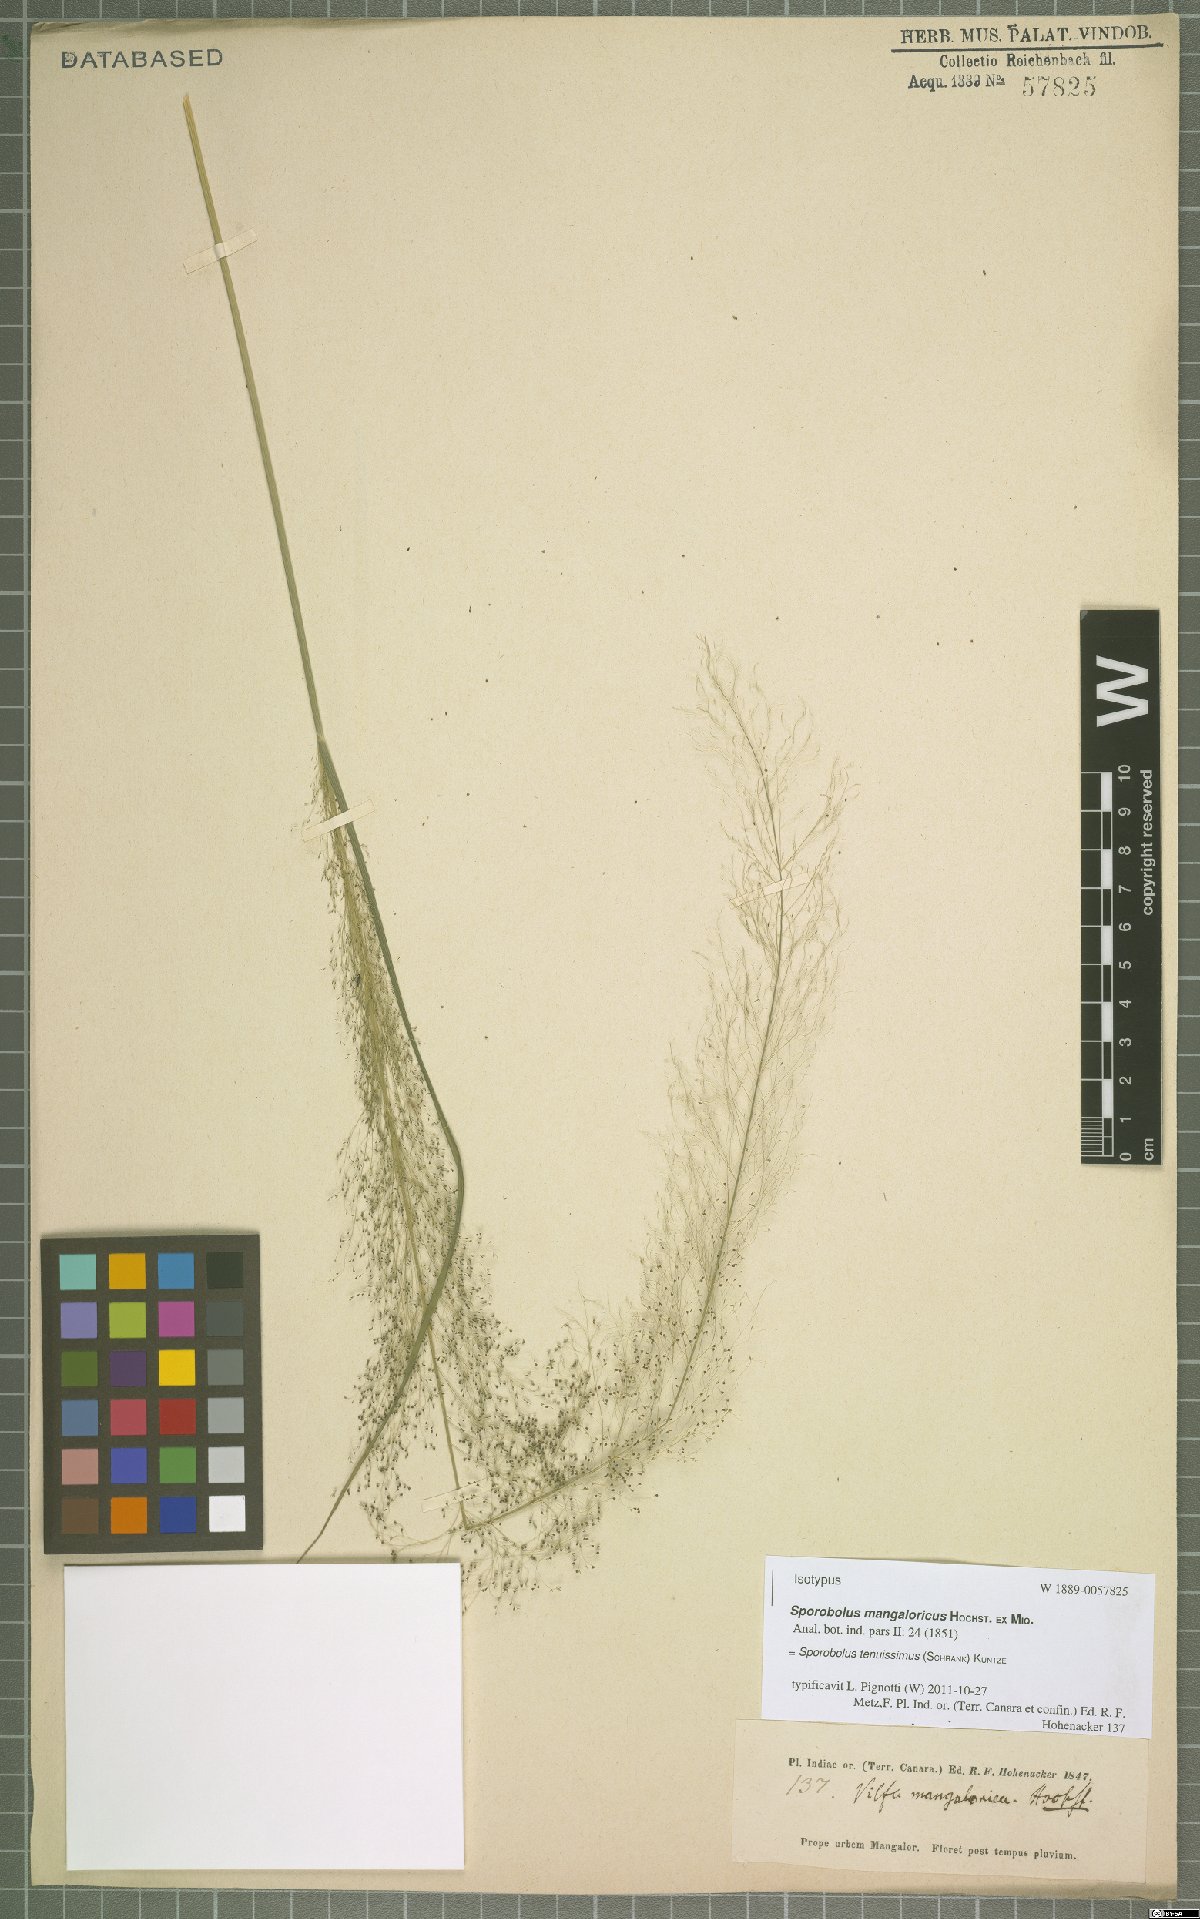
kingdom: Plantae
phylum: Tracheophyta
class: Liliopsida
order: Poales
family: Poaceae
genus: Sporobolus
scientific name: Sporobolus tenuissimus
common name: Tropical dropseed
